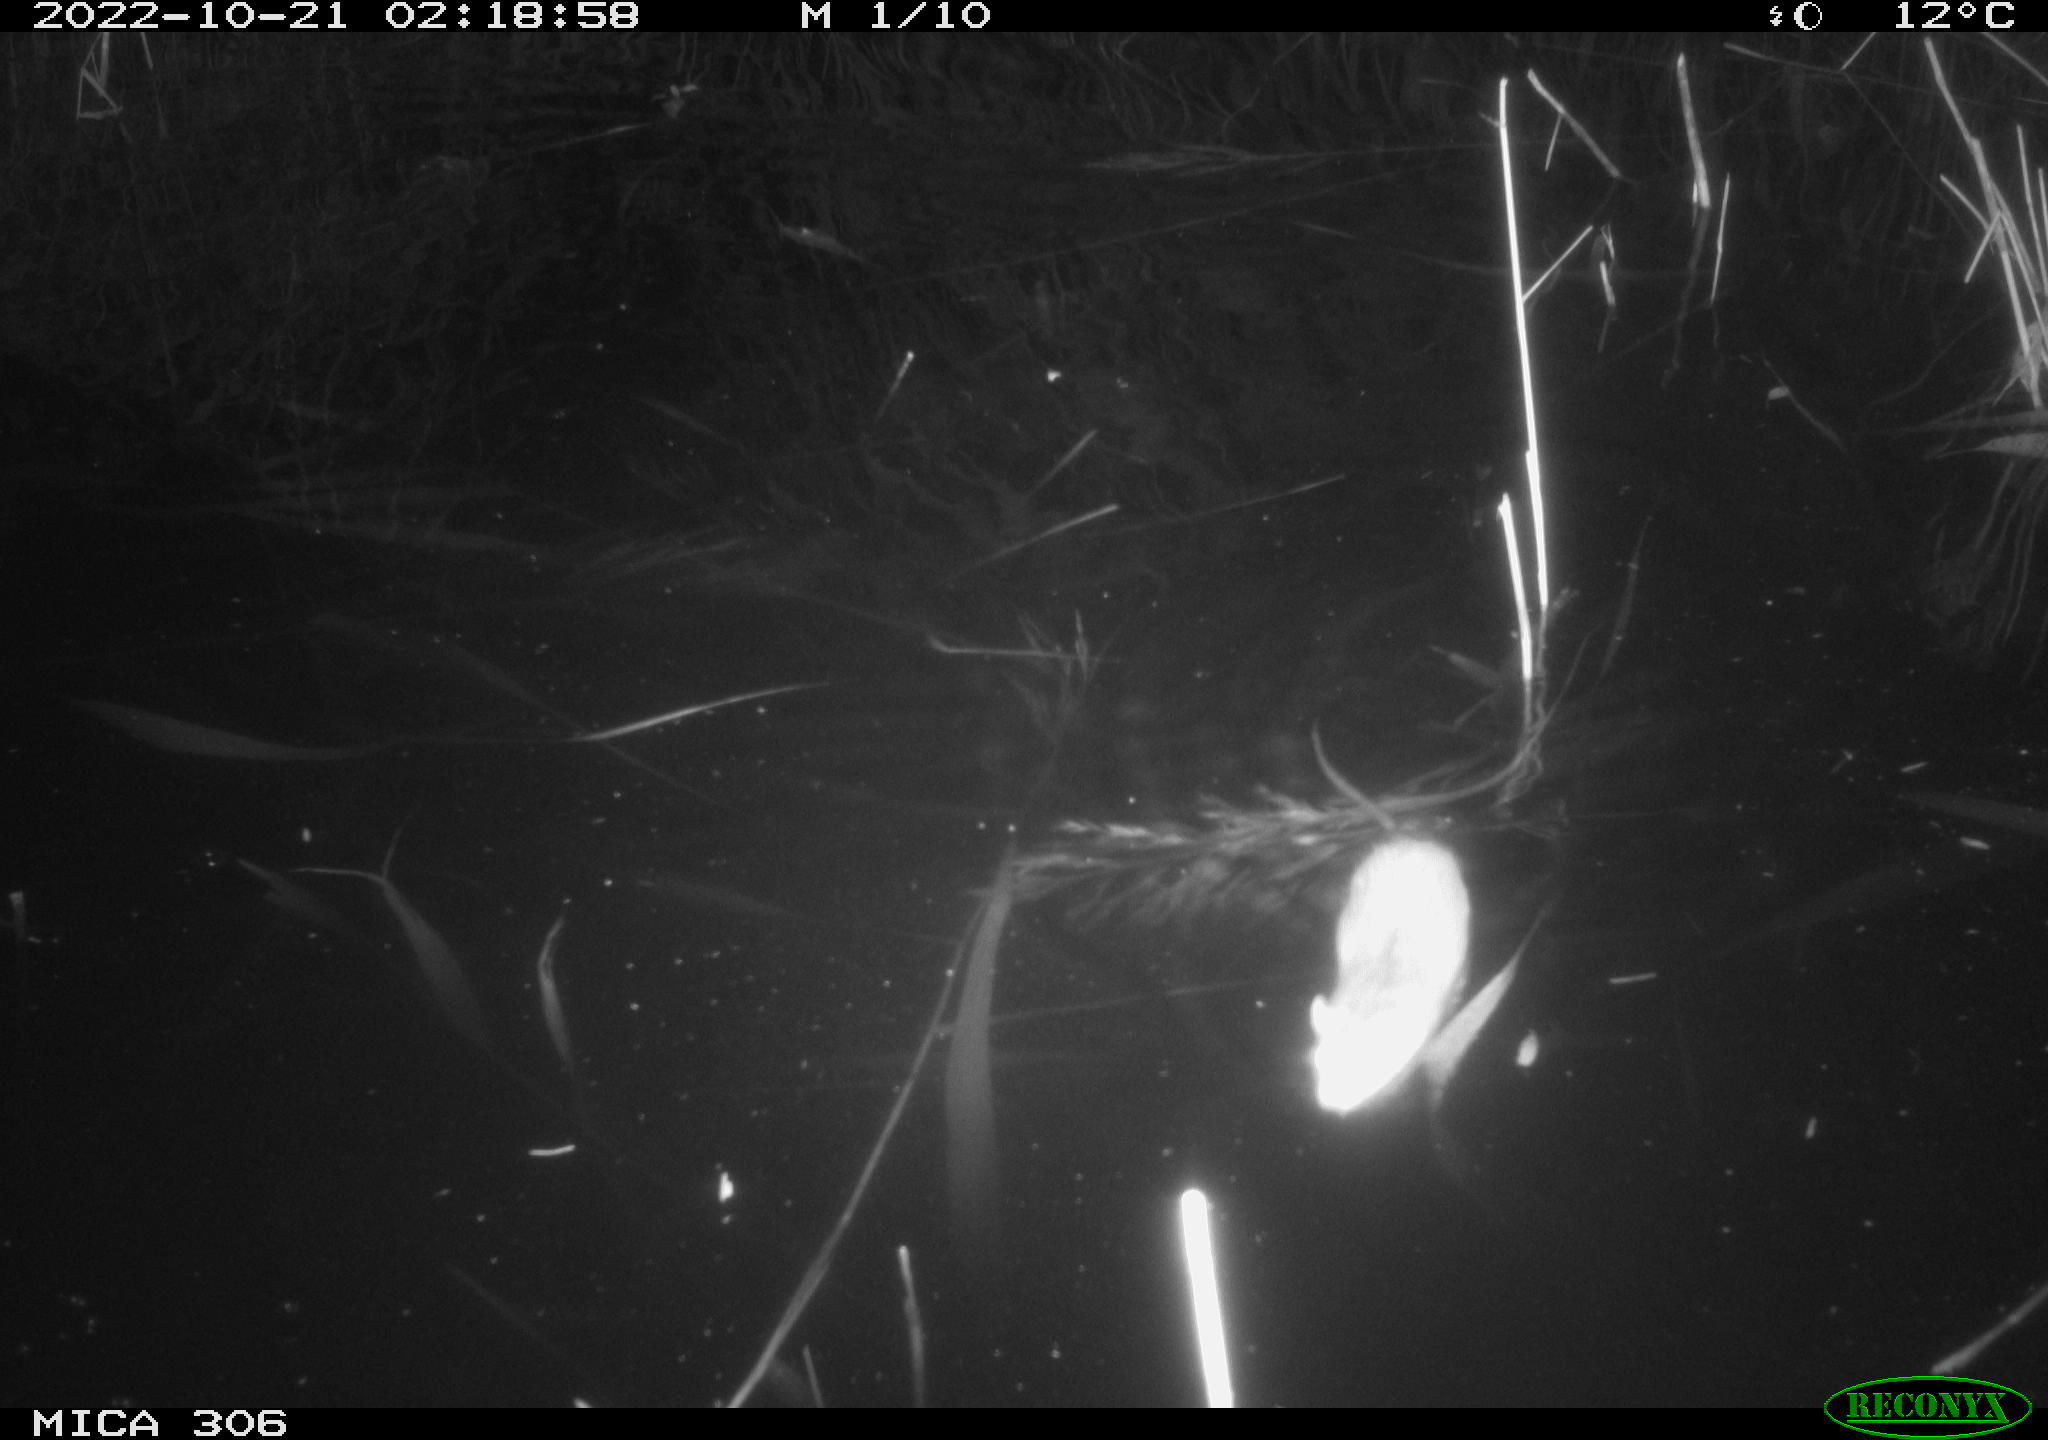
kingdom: Animalia
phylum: Chordata
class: Mammalia
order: Rodentia
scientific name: Rodentia
